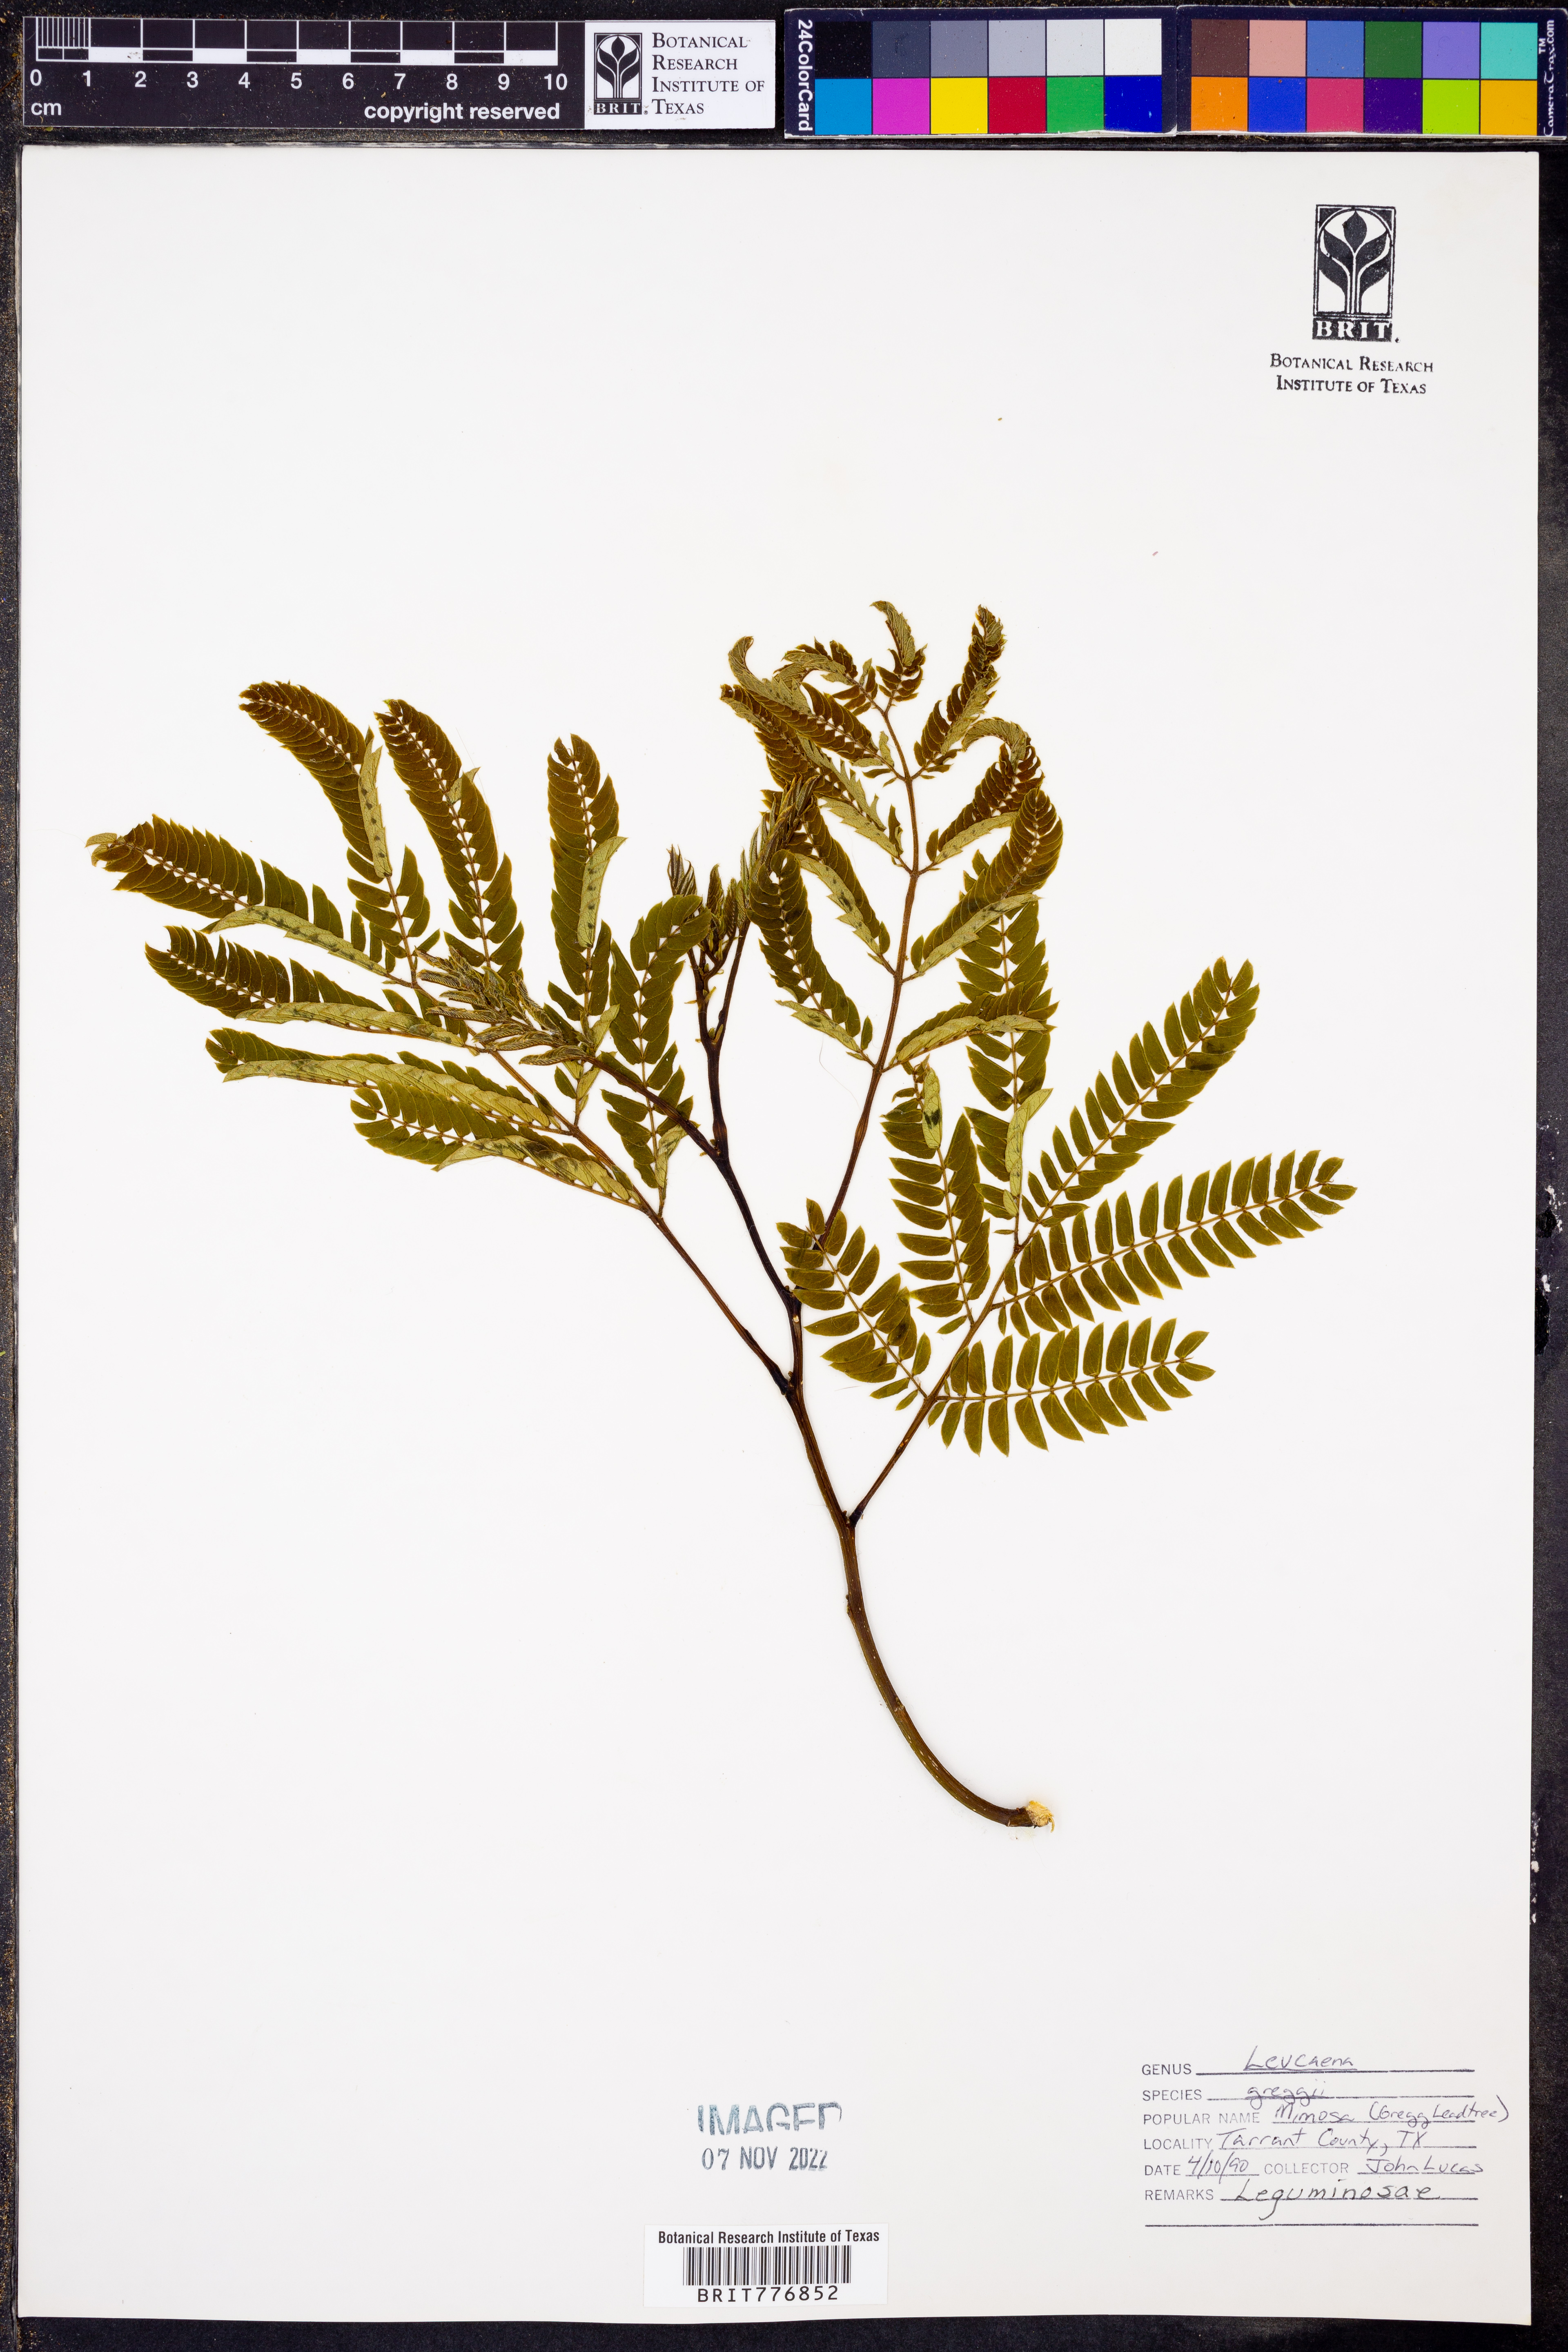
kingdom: Plantae
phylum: Tracheophyta
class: Magnoliopsida
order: Fabales
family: Fabaceae
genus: Leucaena
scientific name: Leucaena greggii
